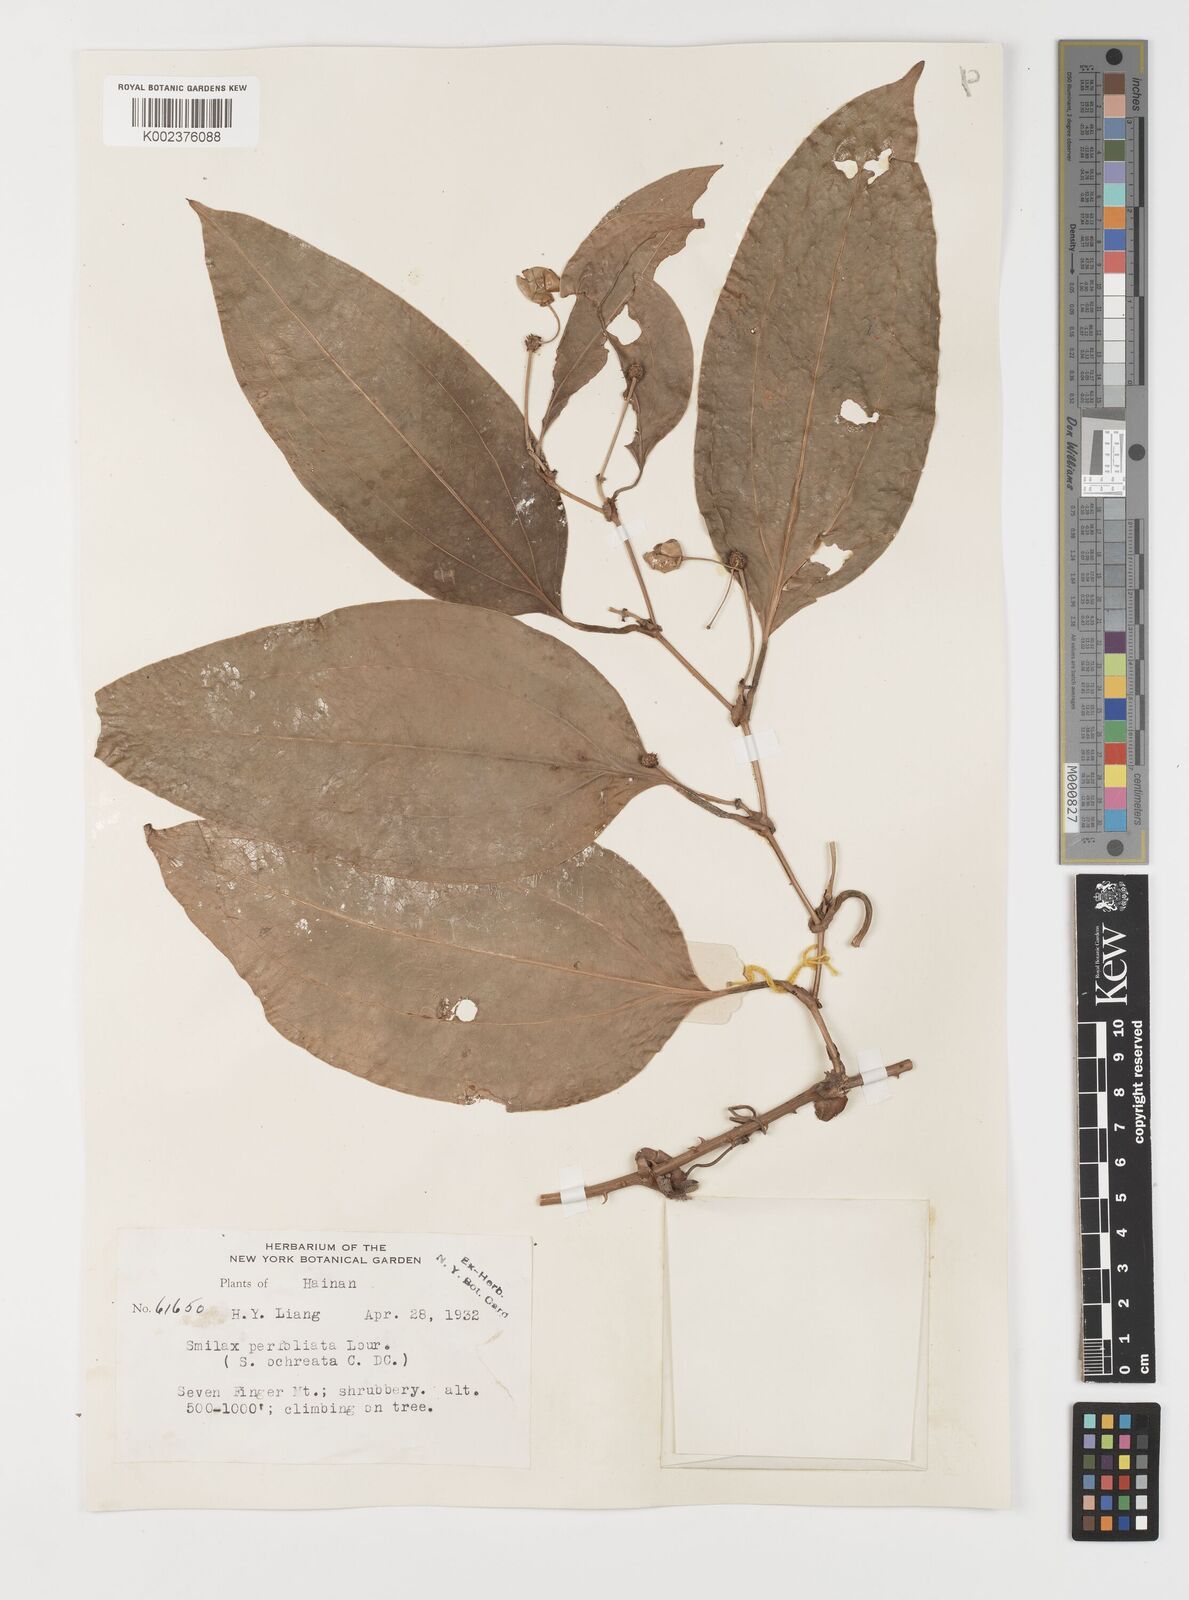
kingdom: Plantae
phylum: Tracheophyta
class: Liliopsida
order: Liliales
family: Smilacaceae
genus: Smilax
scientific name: Smilax ocreata
